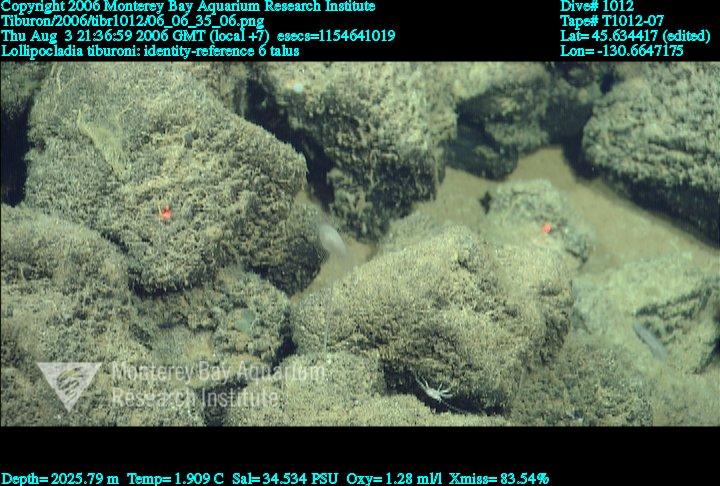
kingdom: Animalia
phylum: Porifera
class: Demospongiae
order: Poecilosclerida
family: Cladorhizidae
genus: Lollipocladia
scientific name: Lollipocladia tiburoni
